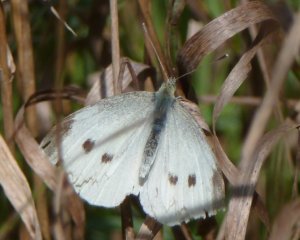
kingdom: Animalia
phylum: Arthropoda
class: Insecta
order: Lepidoptera
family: Pieridae
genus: Pieris
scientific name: Pieris rapae
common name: Cabbage White
